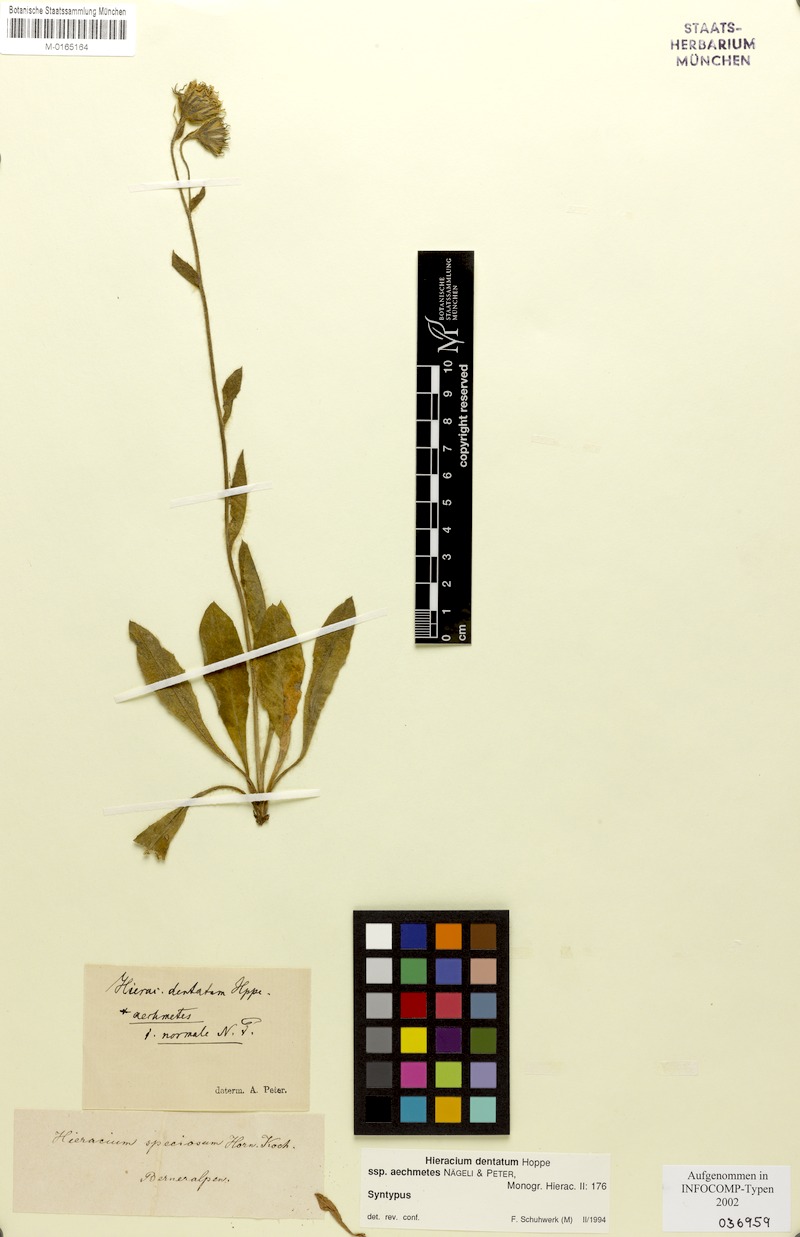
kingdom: Plantae
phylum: Tracheophyta
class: Magnoliopsida
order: Asterales
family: Asteraceae
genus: Hieracium
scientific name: Hieracium dentatum
